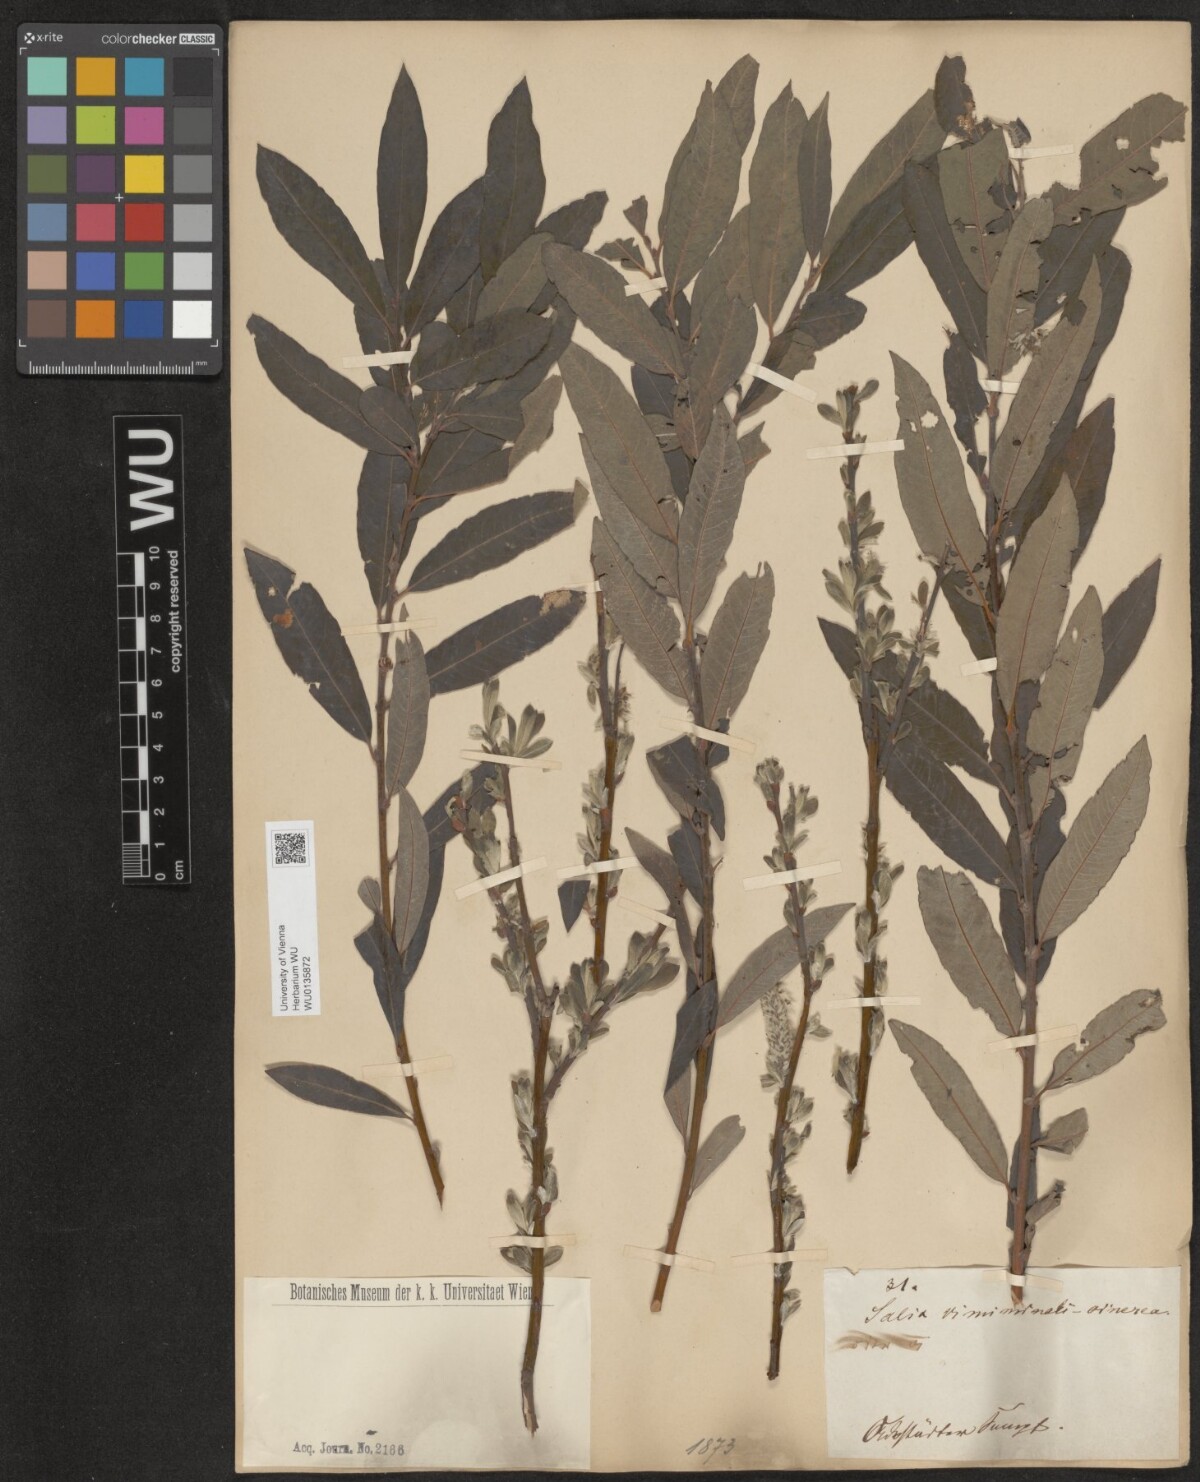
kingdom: Plantae
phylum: Tracheophyta
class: Magnoliopsida
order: Malpighiales
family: Salicaceae
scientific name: Salicaceae
